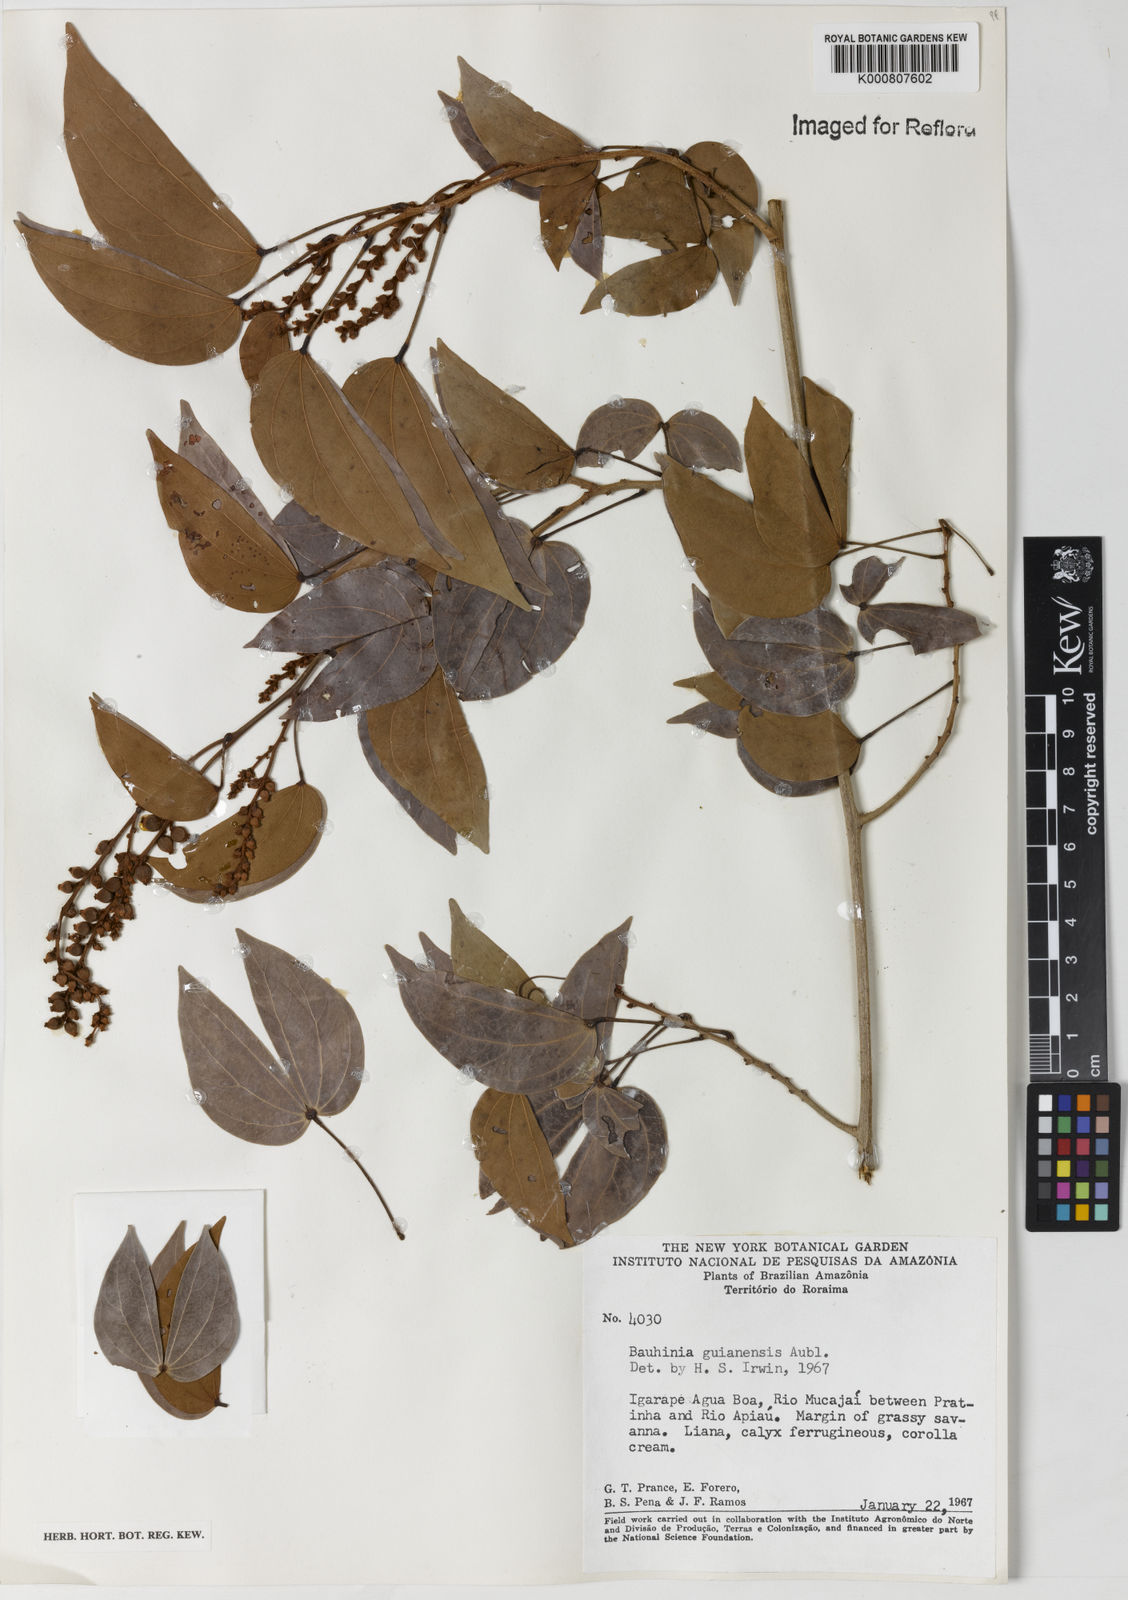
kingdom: Plantae
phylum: Tracheophyta
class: Magnoliopsida
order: Fabales
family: Fabaceae
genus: Schnella
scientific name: Schnella guianensis
